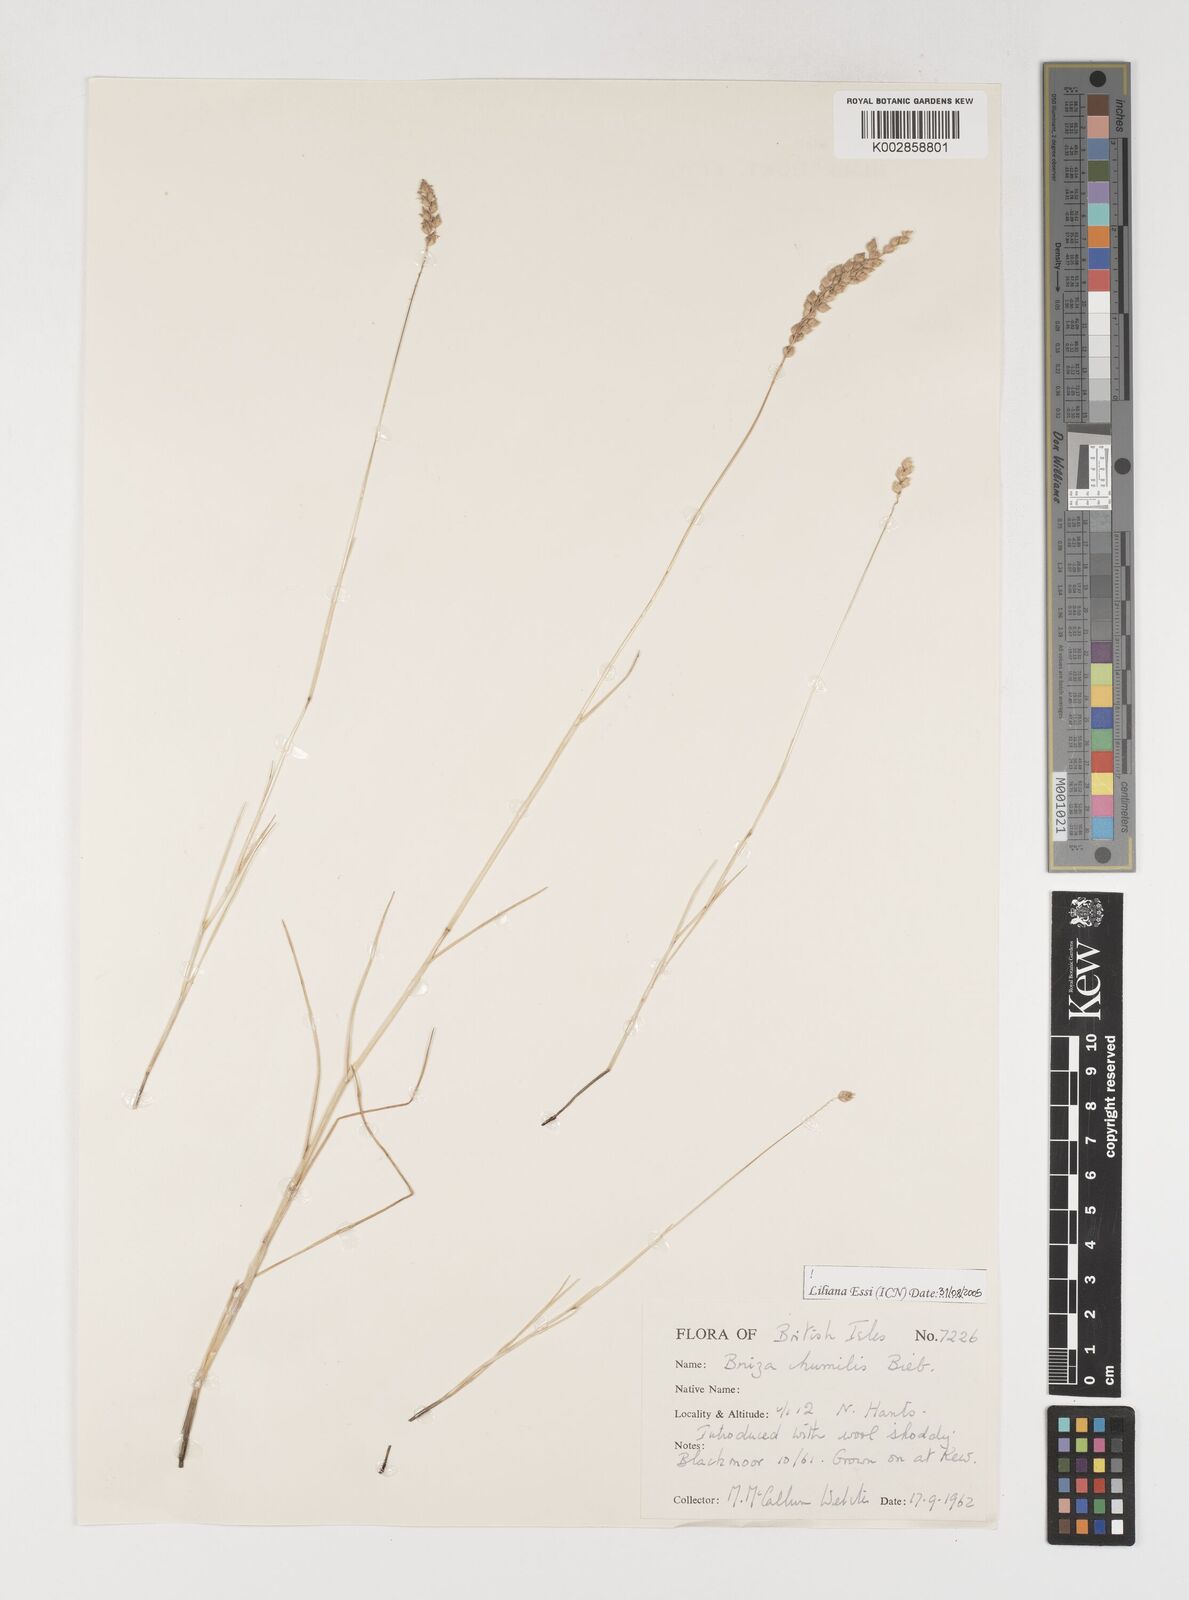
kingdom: Plantae
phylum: Tracheophyta
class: Liliopsida
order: Poales
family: Poaceae
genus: Briza
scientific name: Briza humilis
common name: Spiked quaking grass
